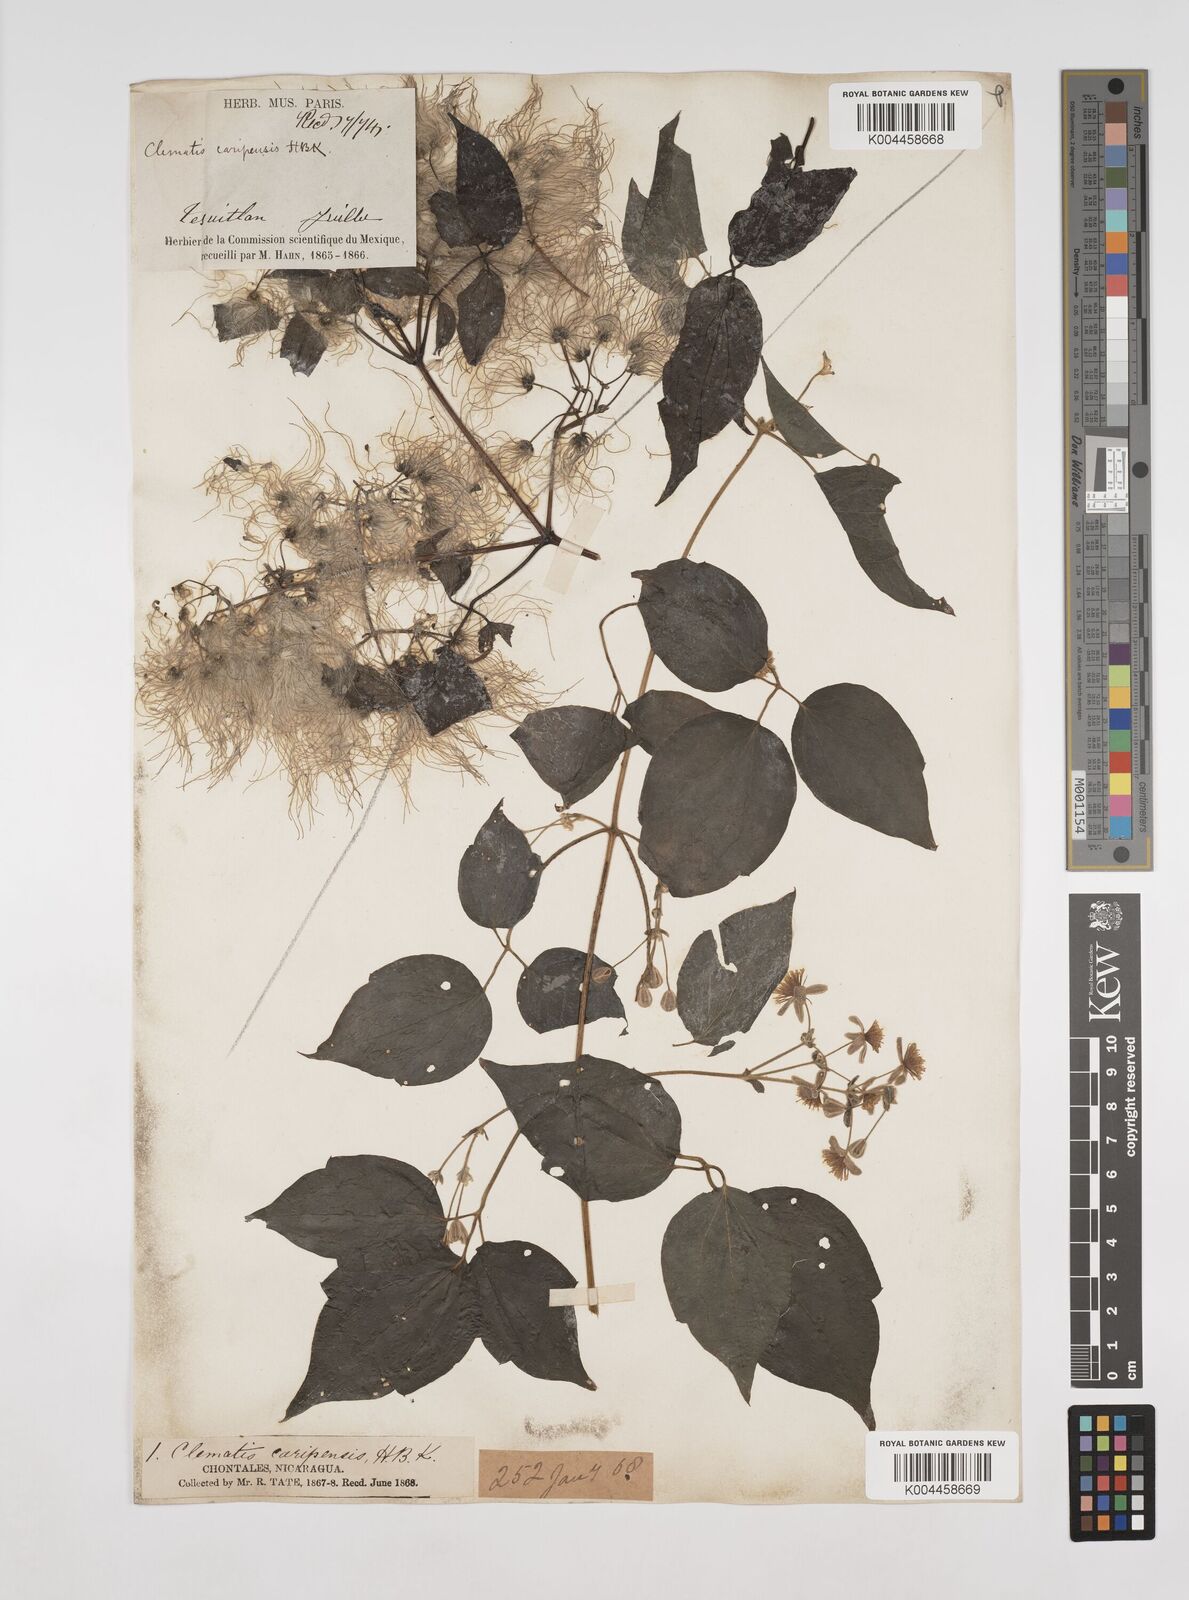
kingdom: Plantae
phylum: Tracheophyta
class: Magnoliopsida
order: Ranunculales
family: Ranunculaceae
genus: Clematis
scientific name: Clematis dioica
